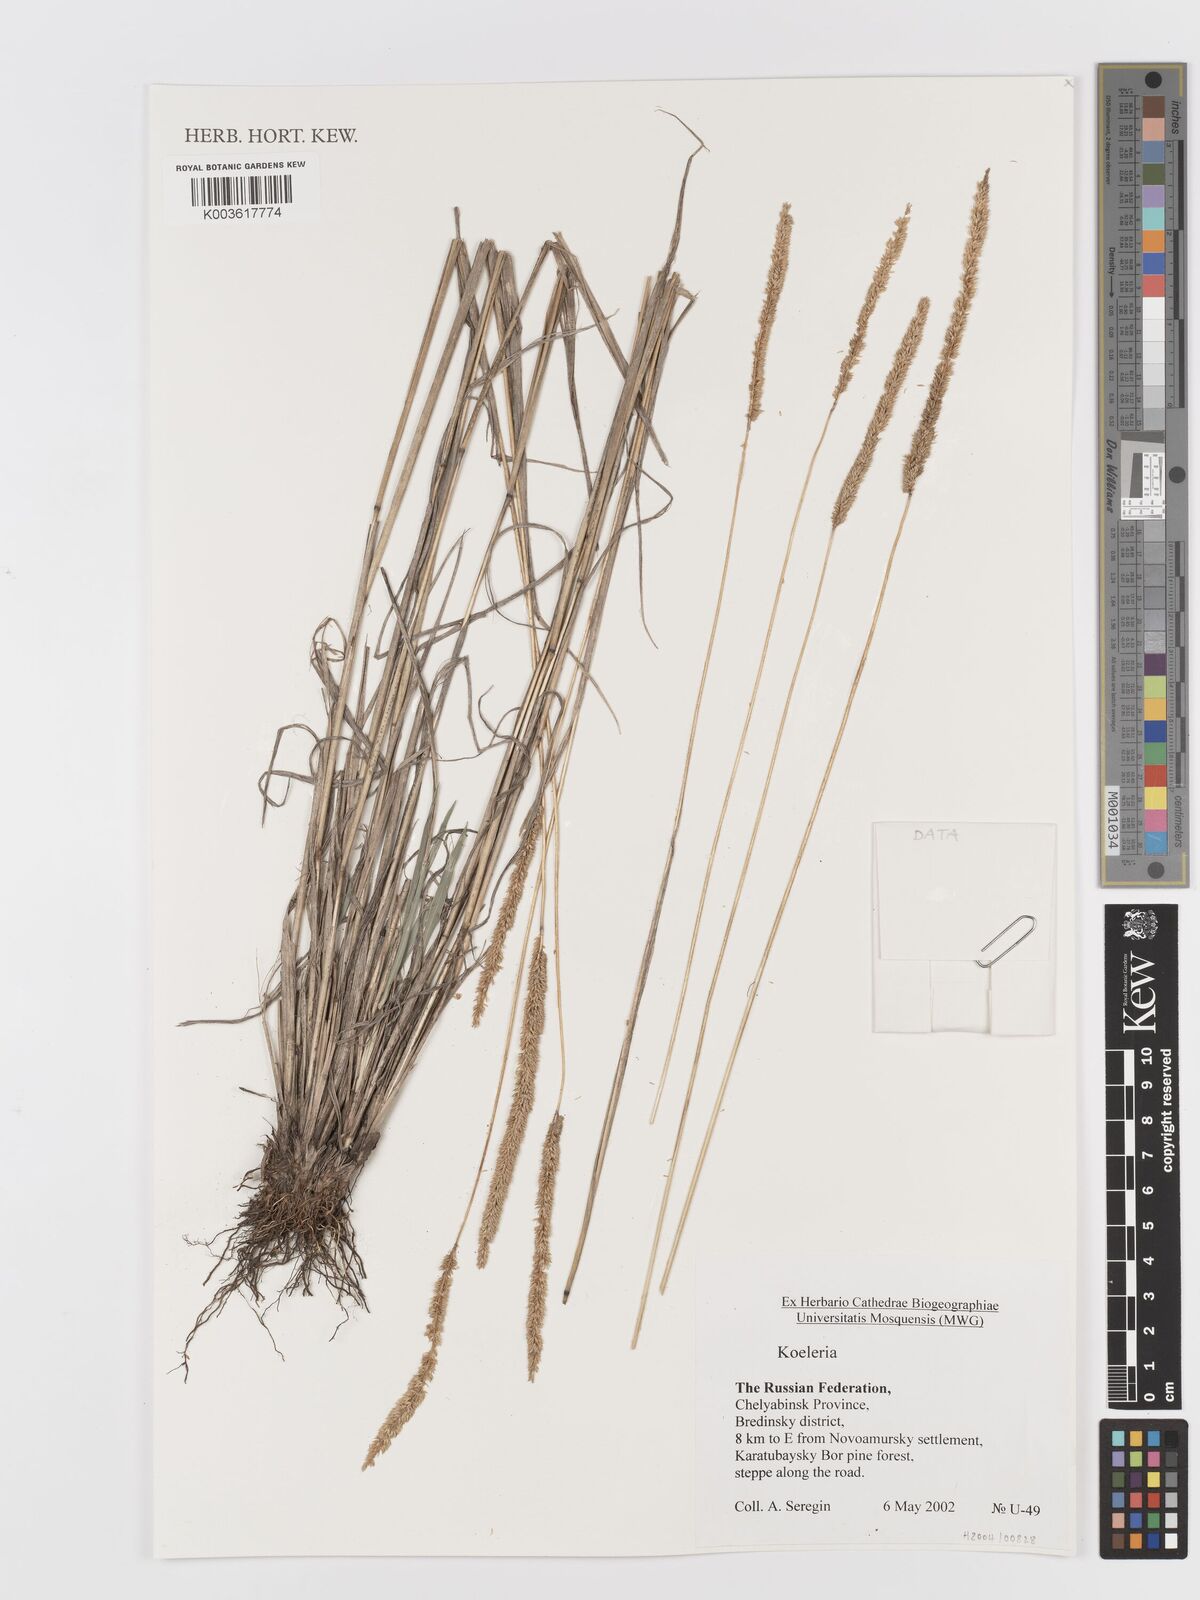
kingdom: Plantae
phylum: Tracheophyta
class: Liliopsida
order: Poales
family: Poaceae
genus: Koeleria
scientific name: Koeleria
